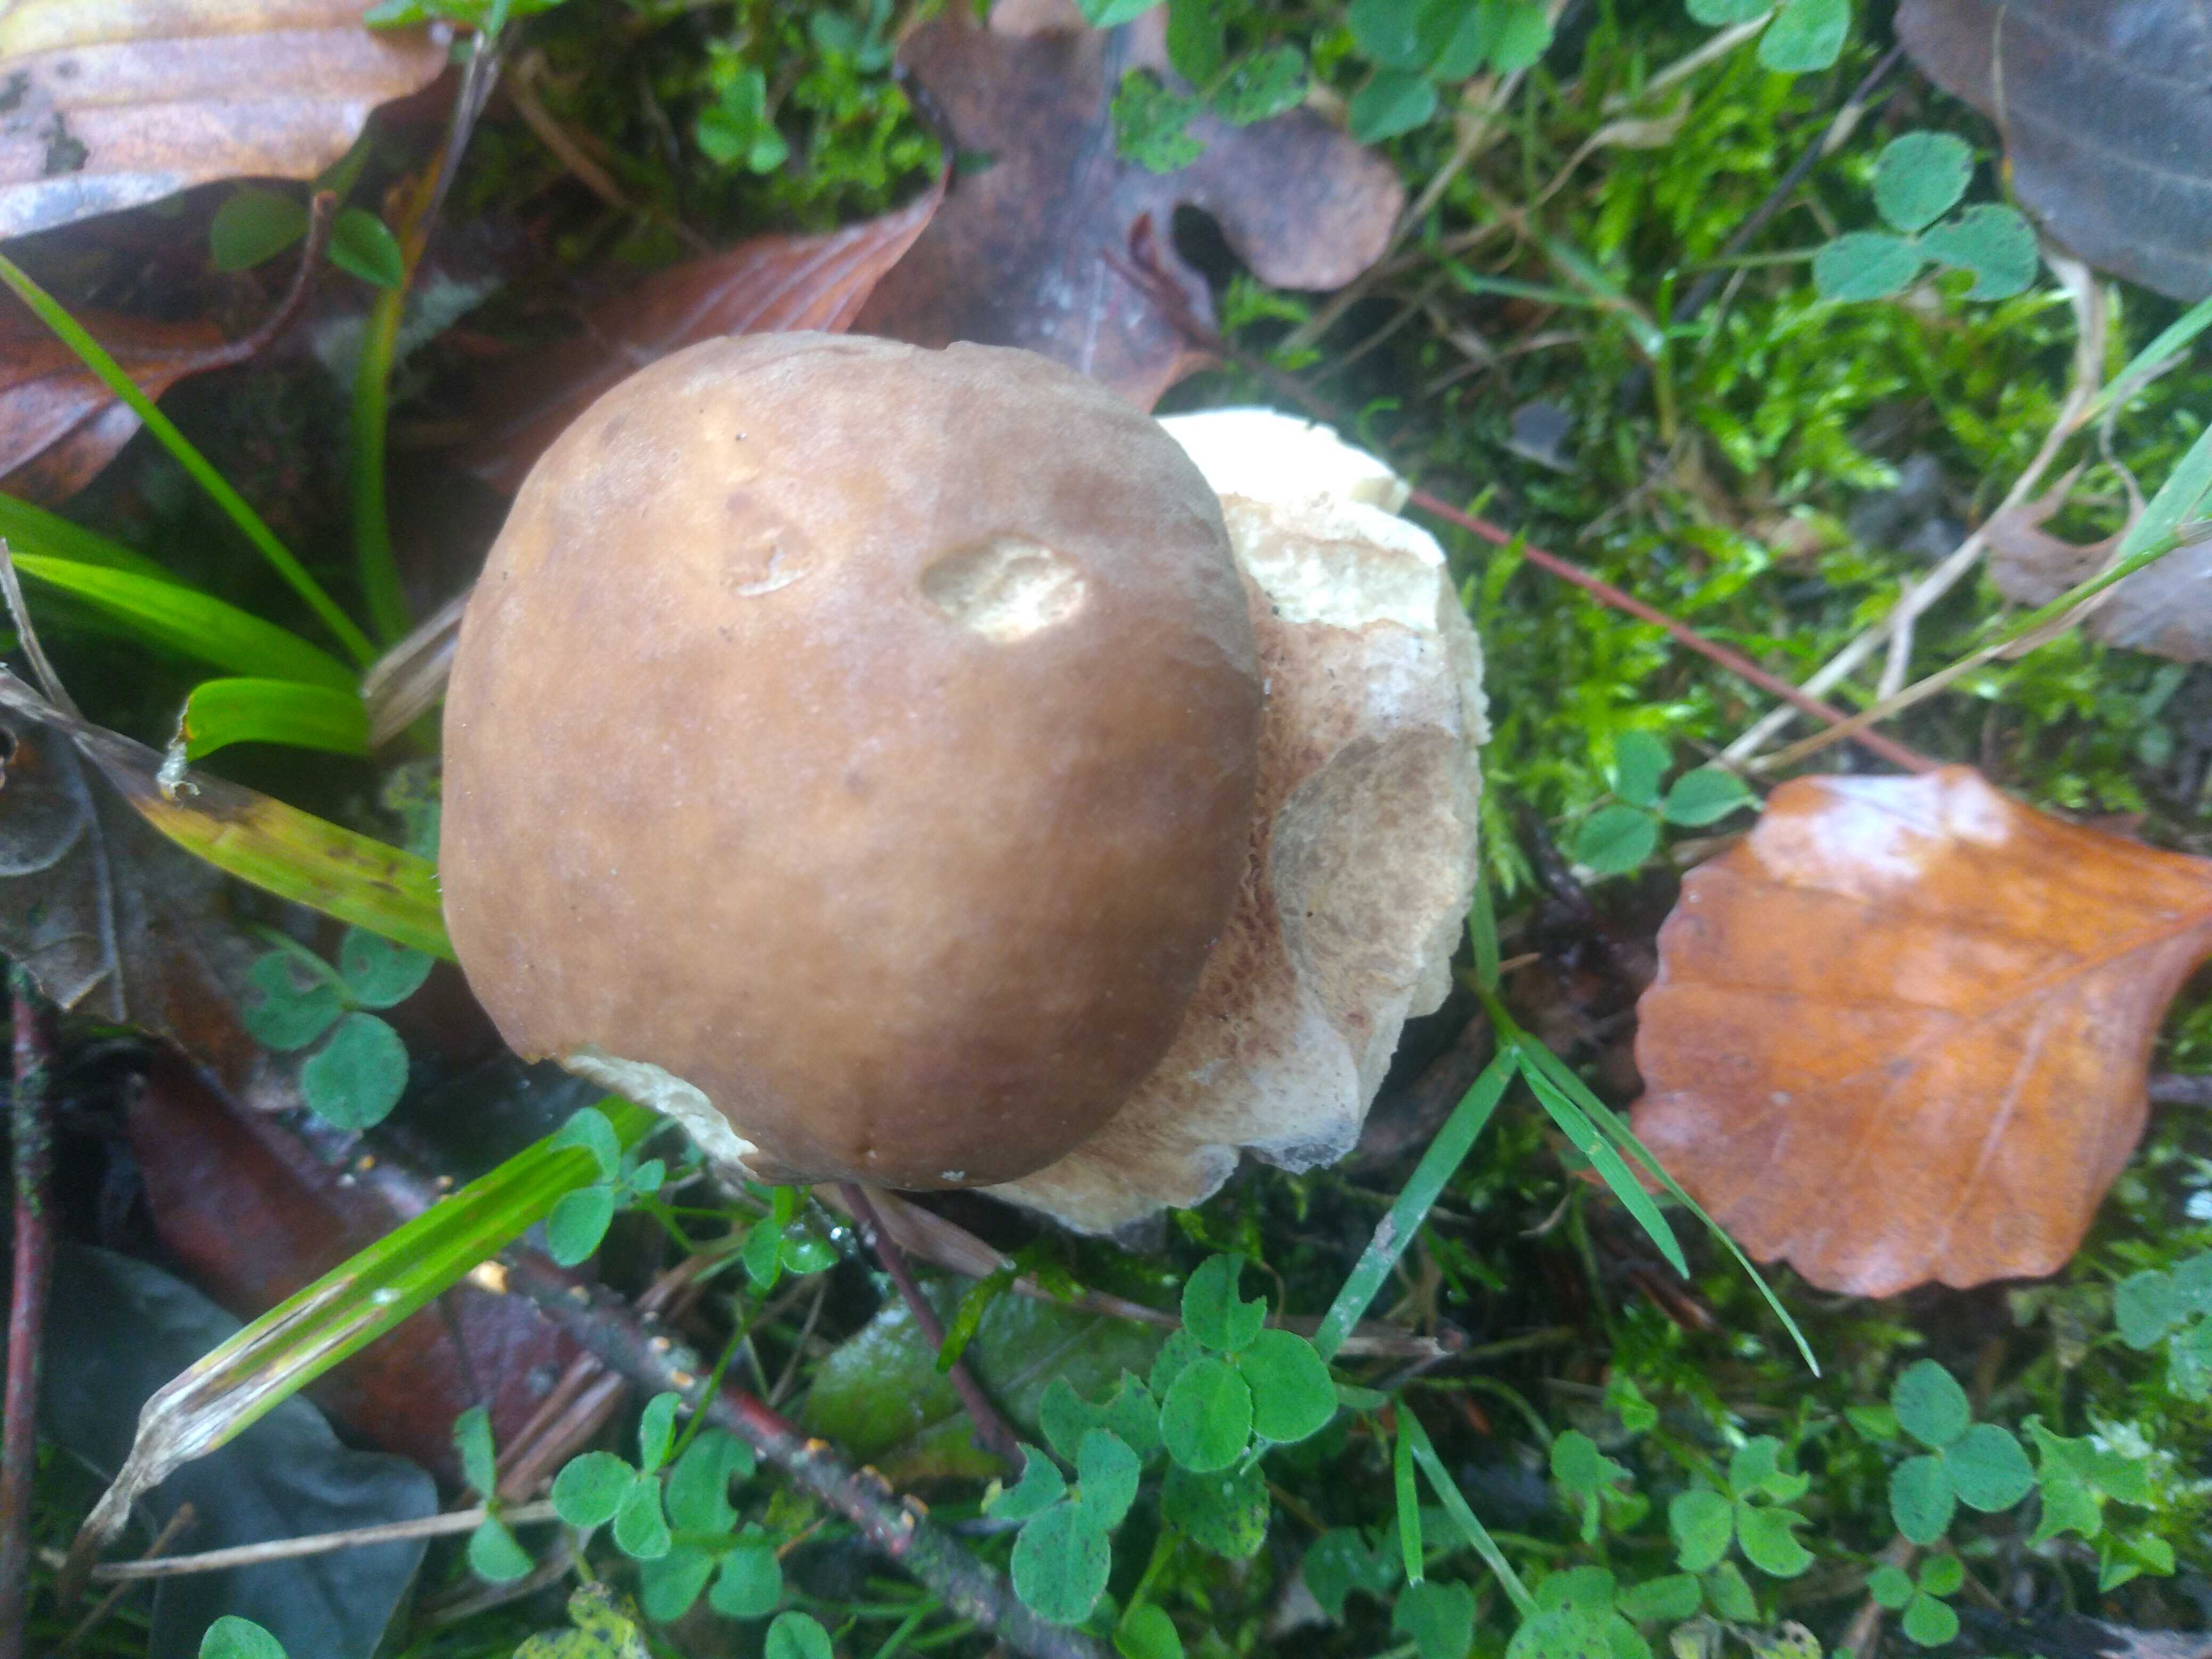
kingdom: Fungi
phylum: Basidiomycota
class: Agaricomycetes
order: Boletales
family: Boletaceae
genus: Boletus
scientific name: Boletus
